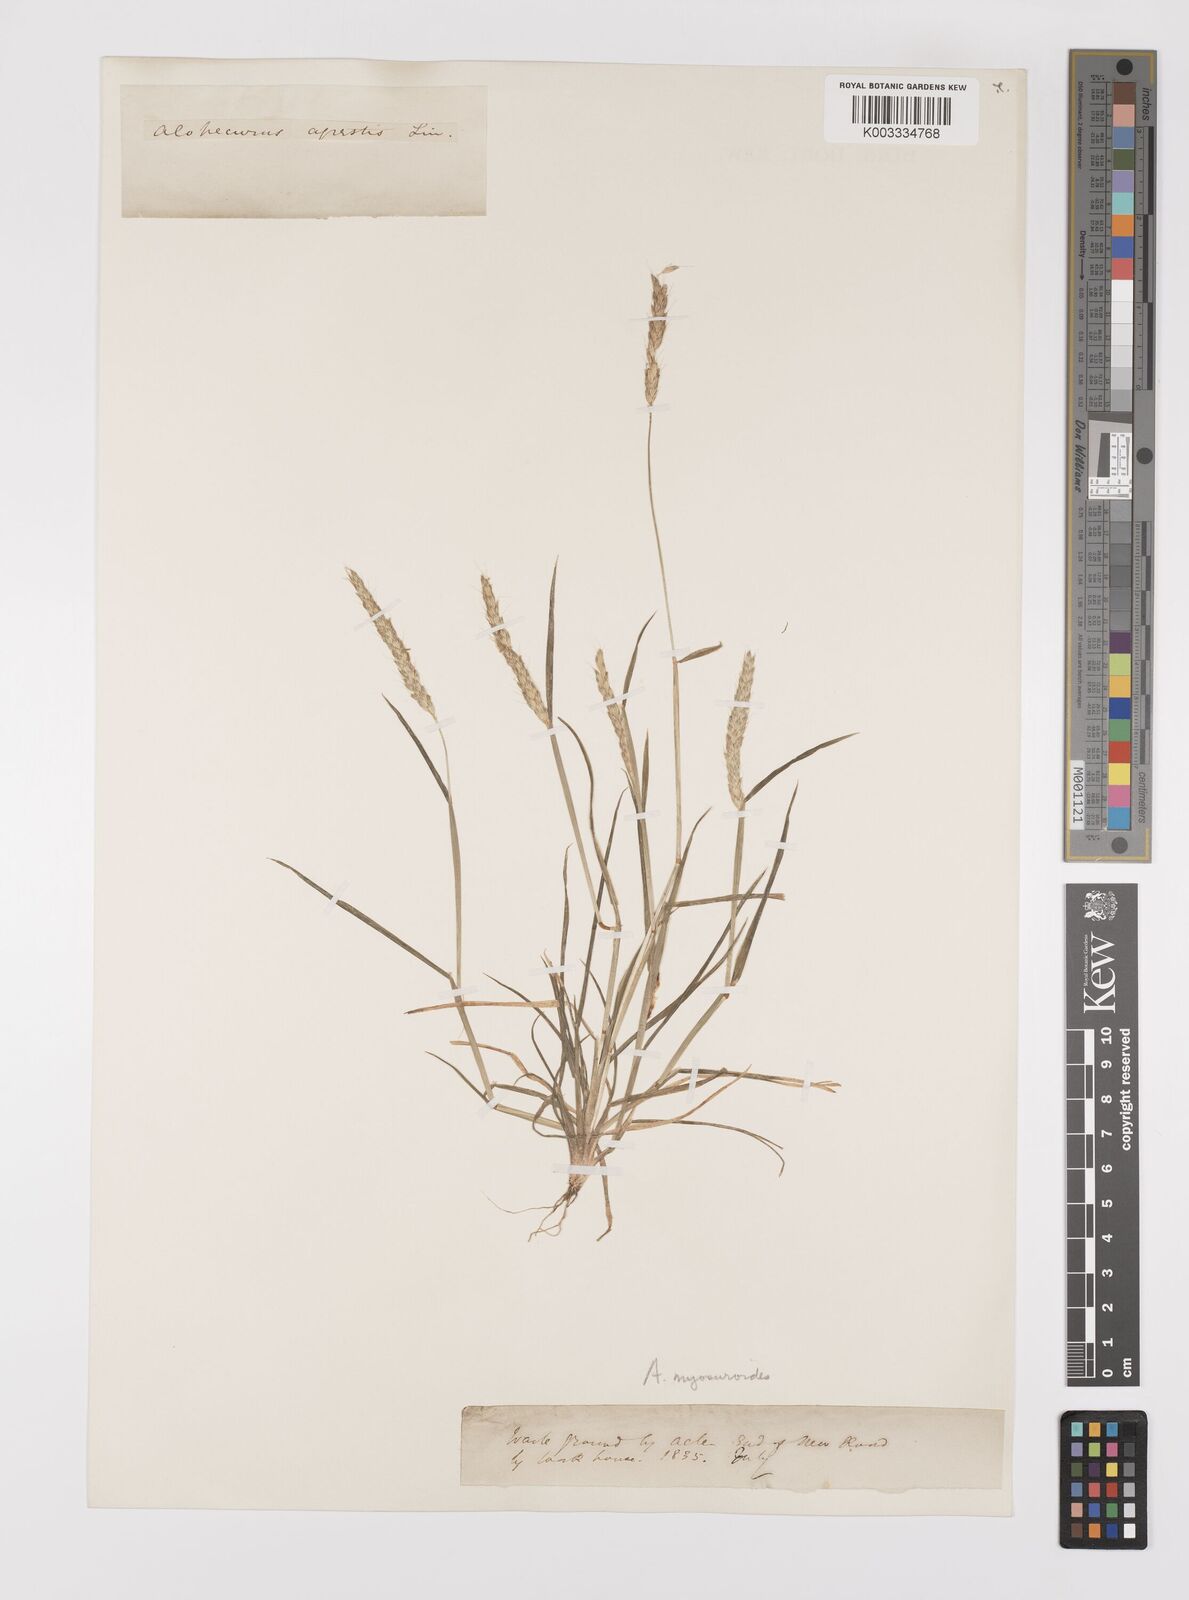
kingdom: Plantae
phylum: Tracheophyta
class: Liliopsida
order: Poales
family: Poaceae
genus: Alopecurus
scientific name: Alopecurus myosuroides
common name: Black-grass
